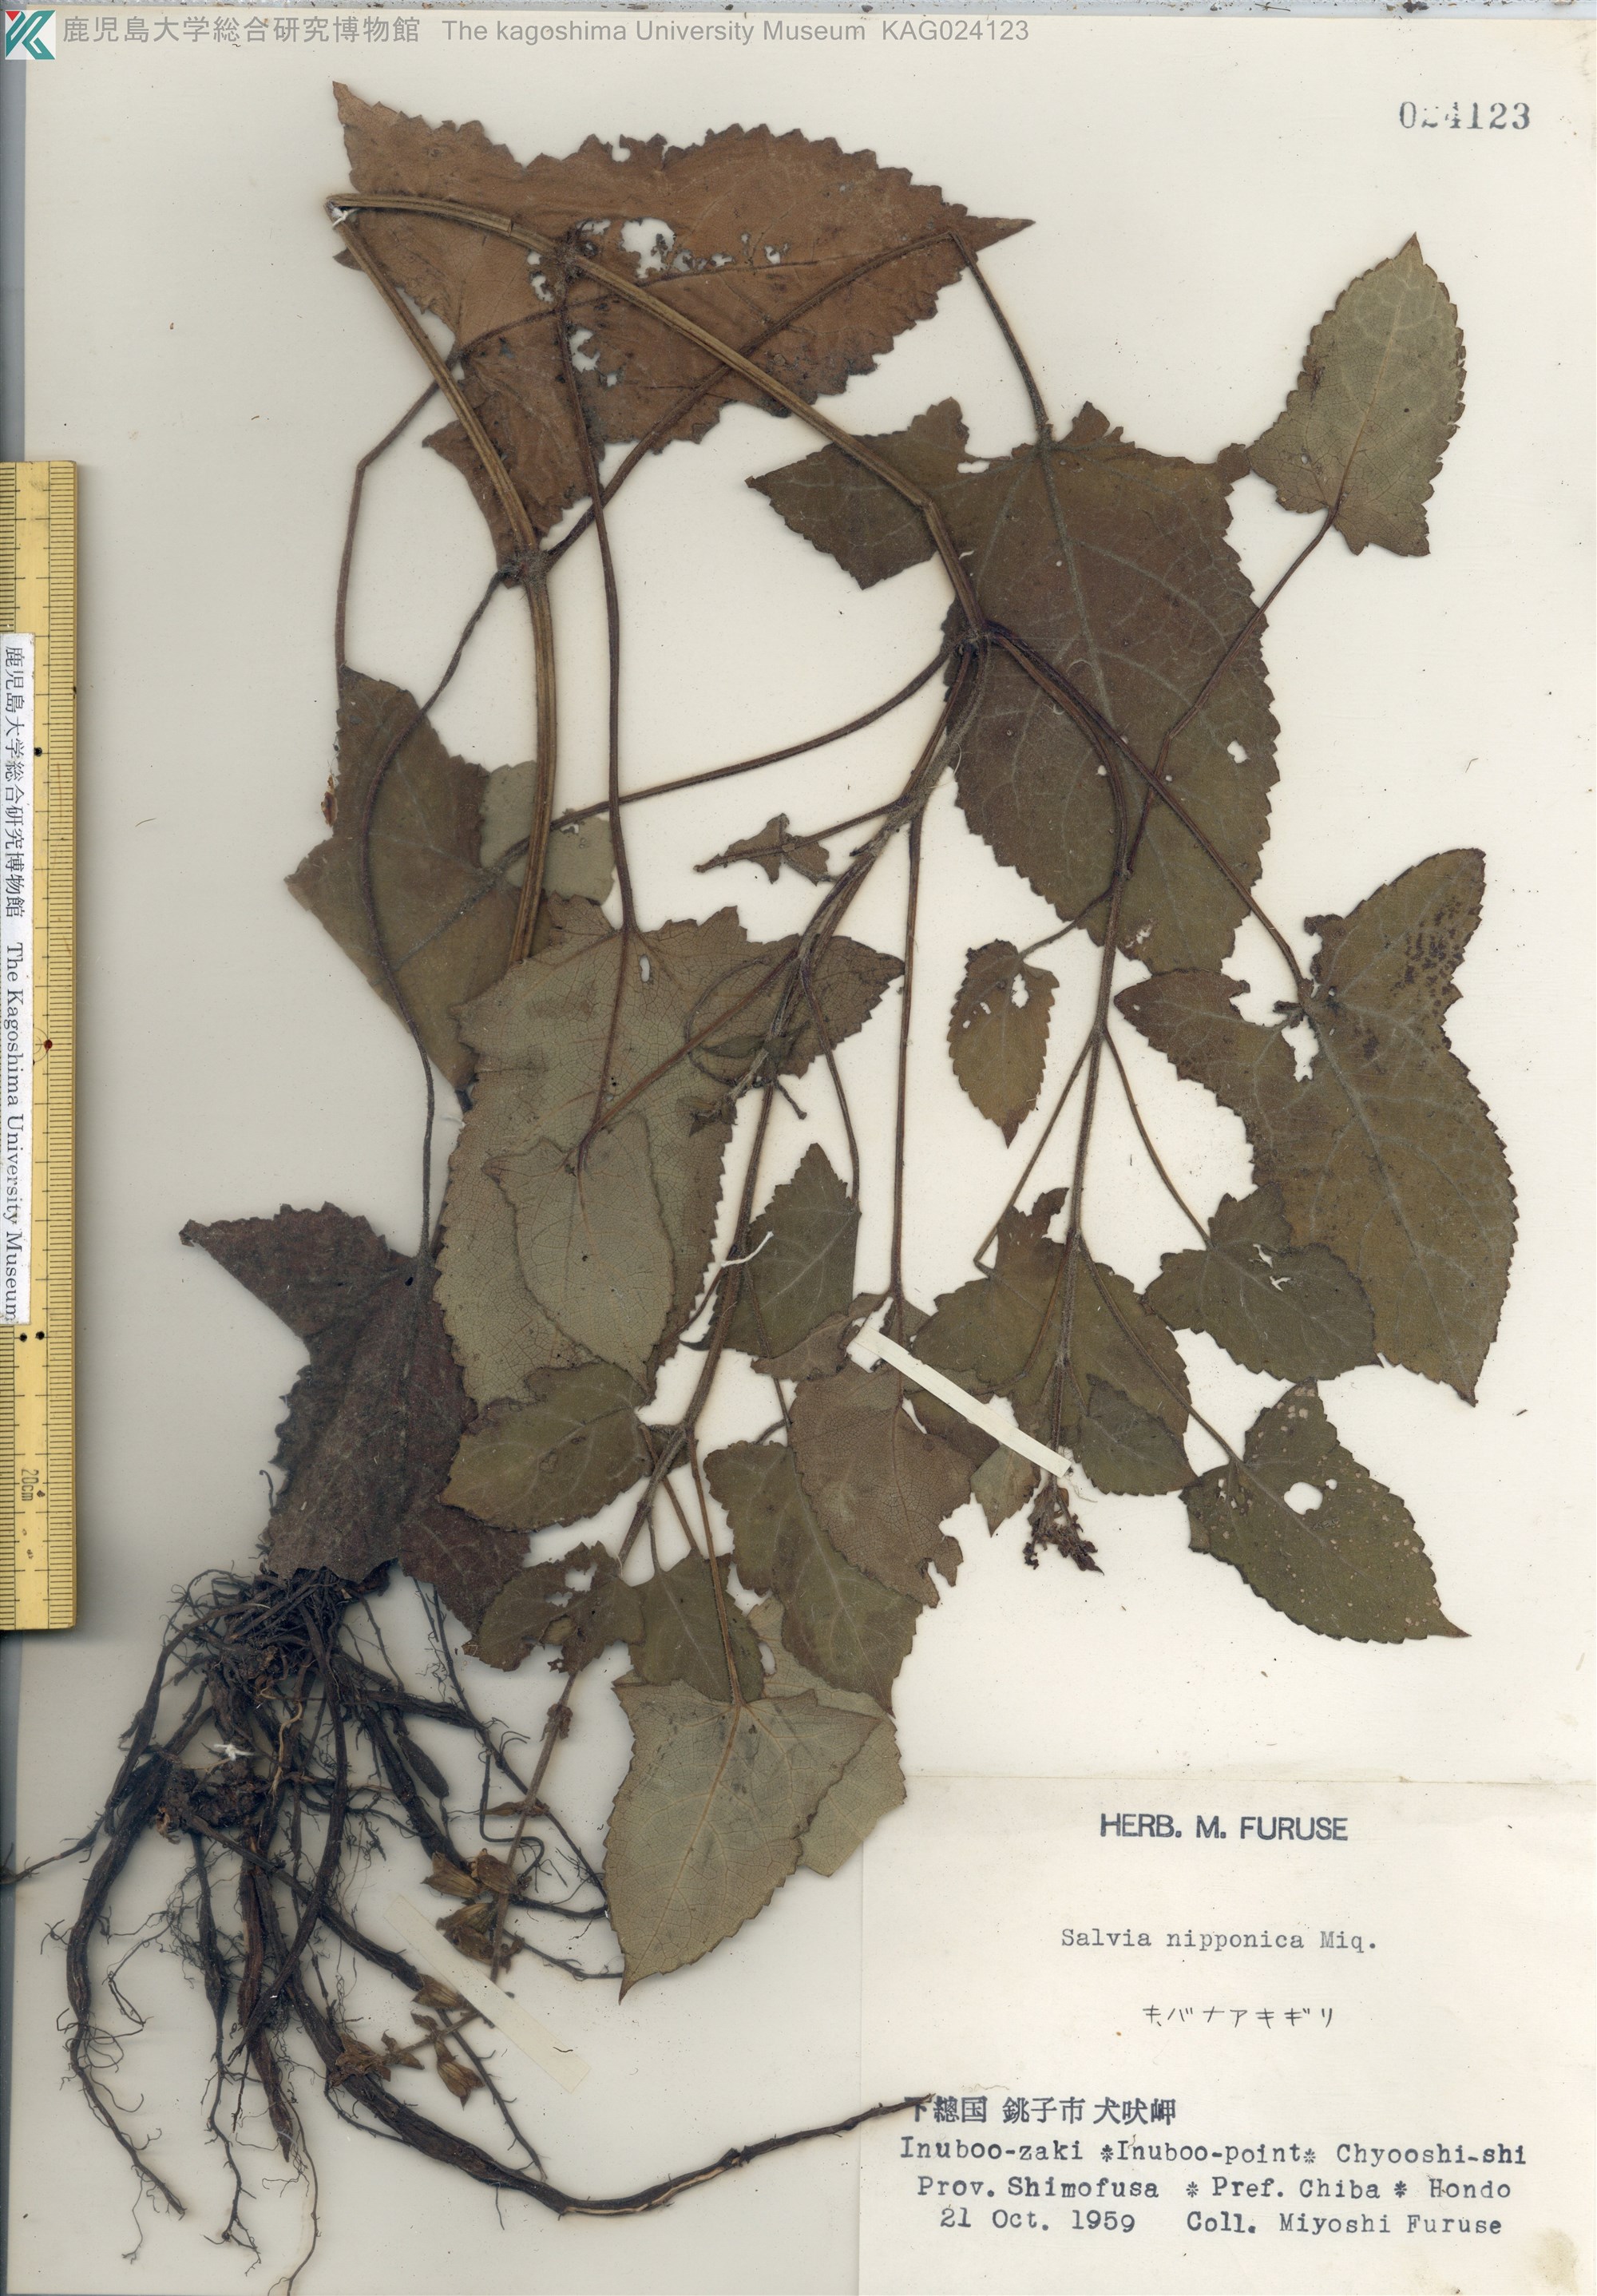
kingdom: Plantae
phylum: Tracheophyta
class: Magnoliopsida
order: Lamiales
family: Lamiaceae
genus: Salvia
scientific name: Salvia nipponica
